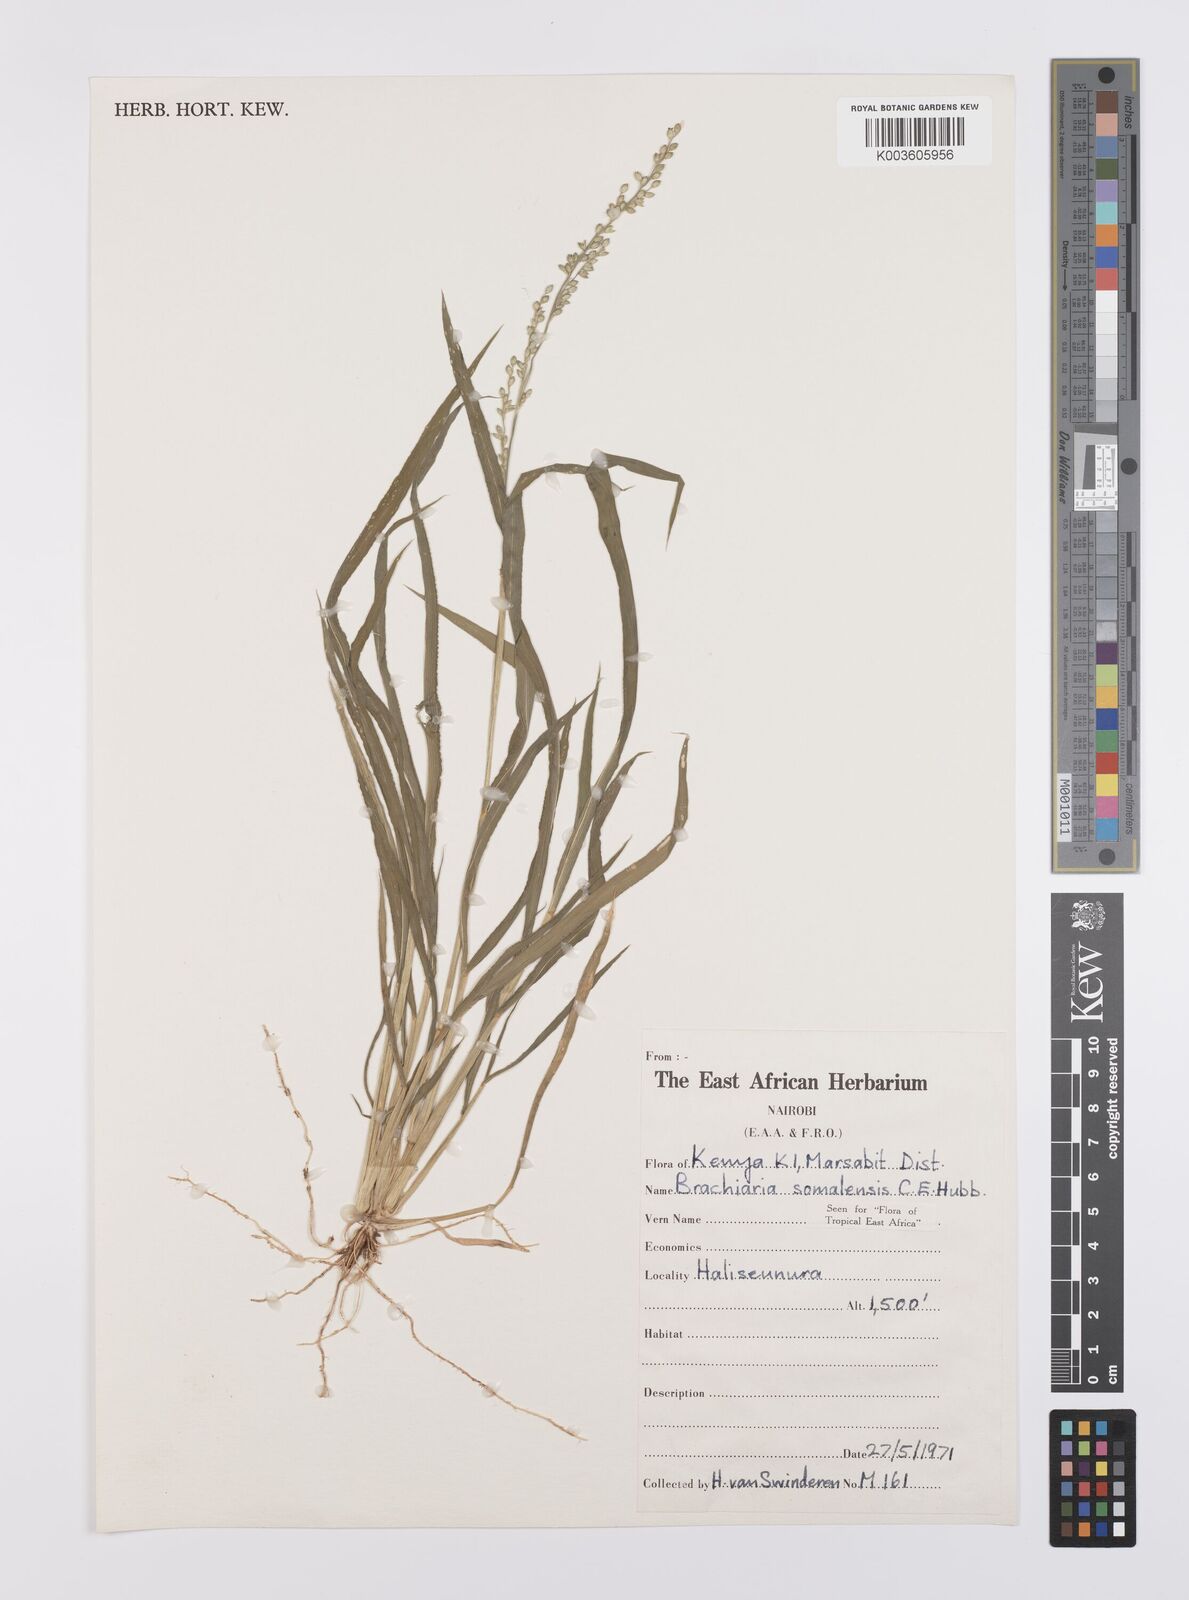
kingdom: Plantae
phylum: Tracheophyta
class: Liliopsida
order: Poales
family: Poaceae
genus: Urochloa
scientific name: Urochloa ovalis
